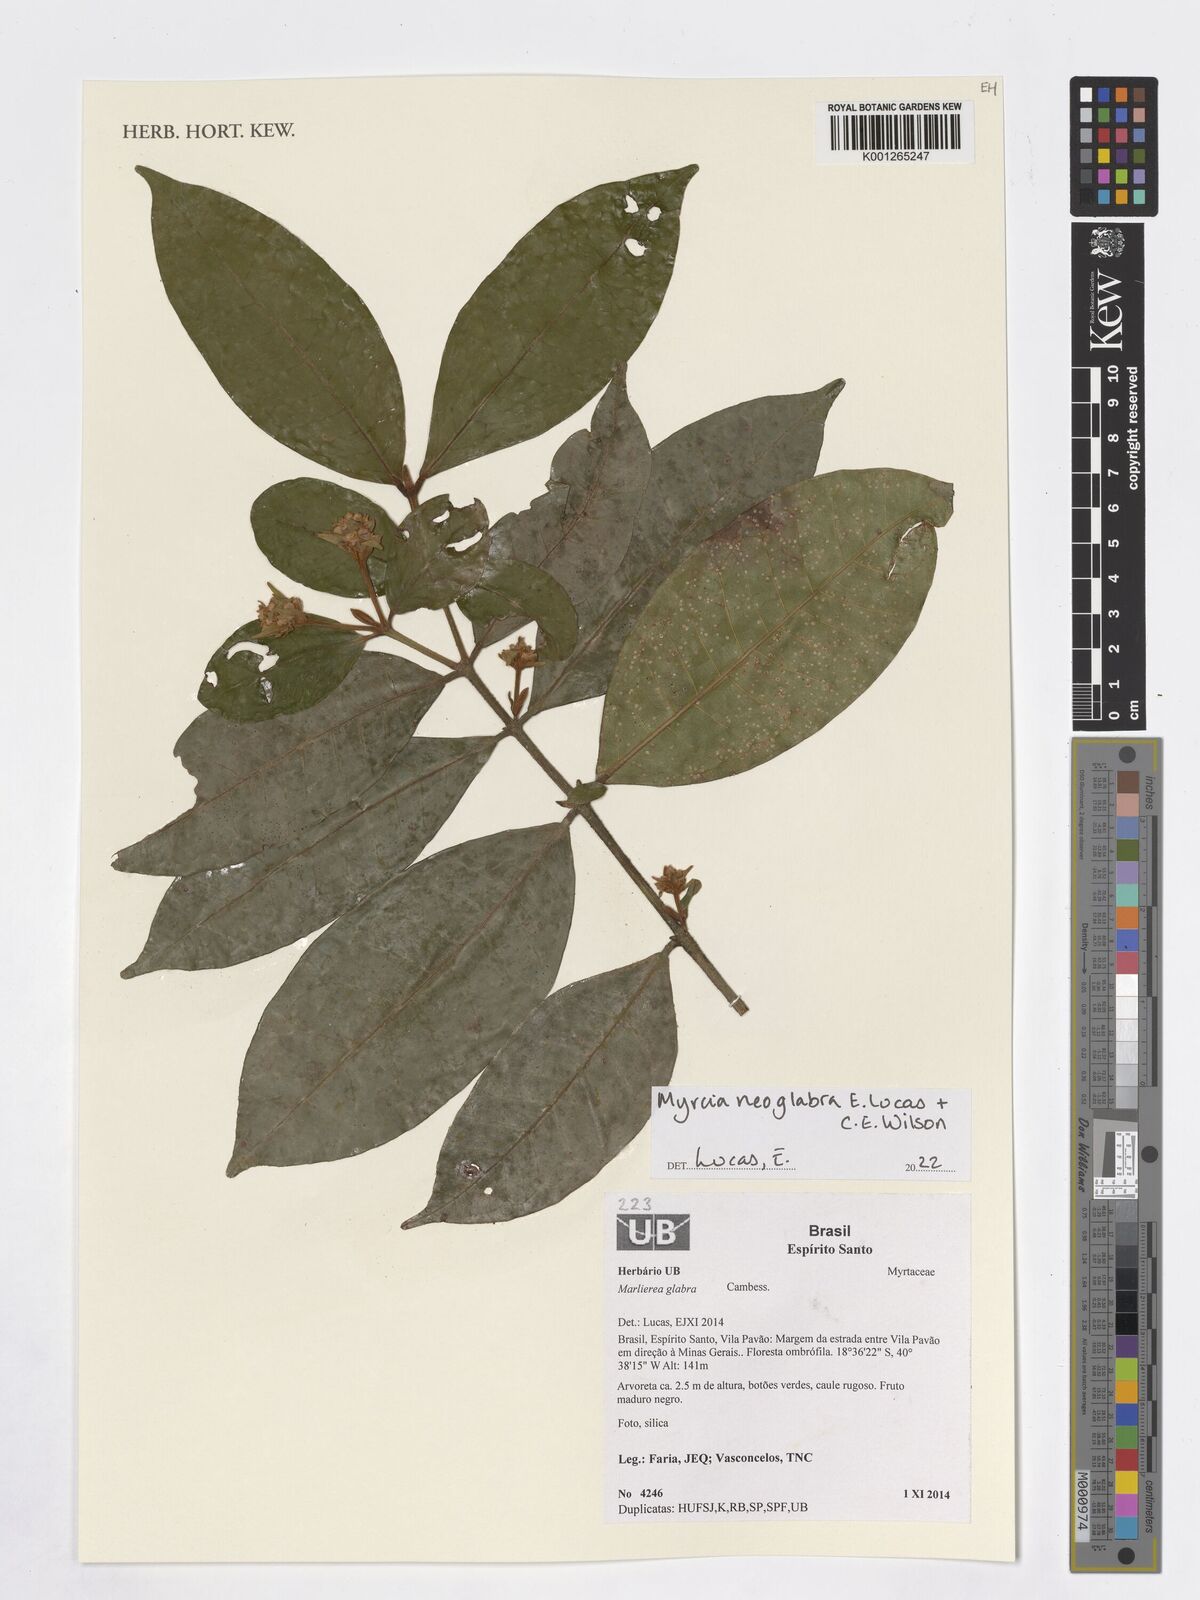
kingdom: Plantae
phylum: Tracheophyta
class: Magnoliopsida
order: Myrtales
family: Myrtaceae
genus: Myrcia
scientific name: Myrcia neoglabra
